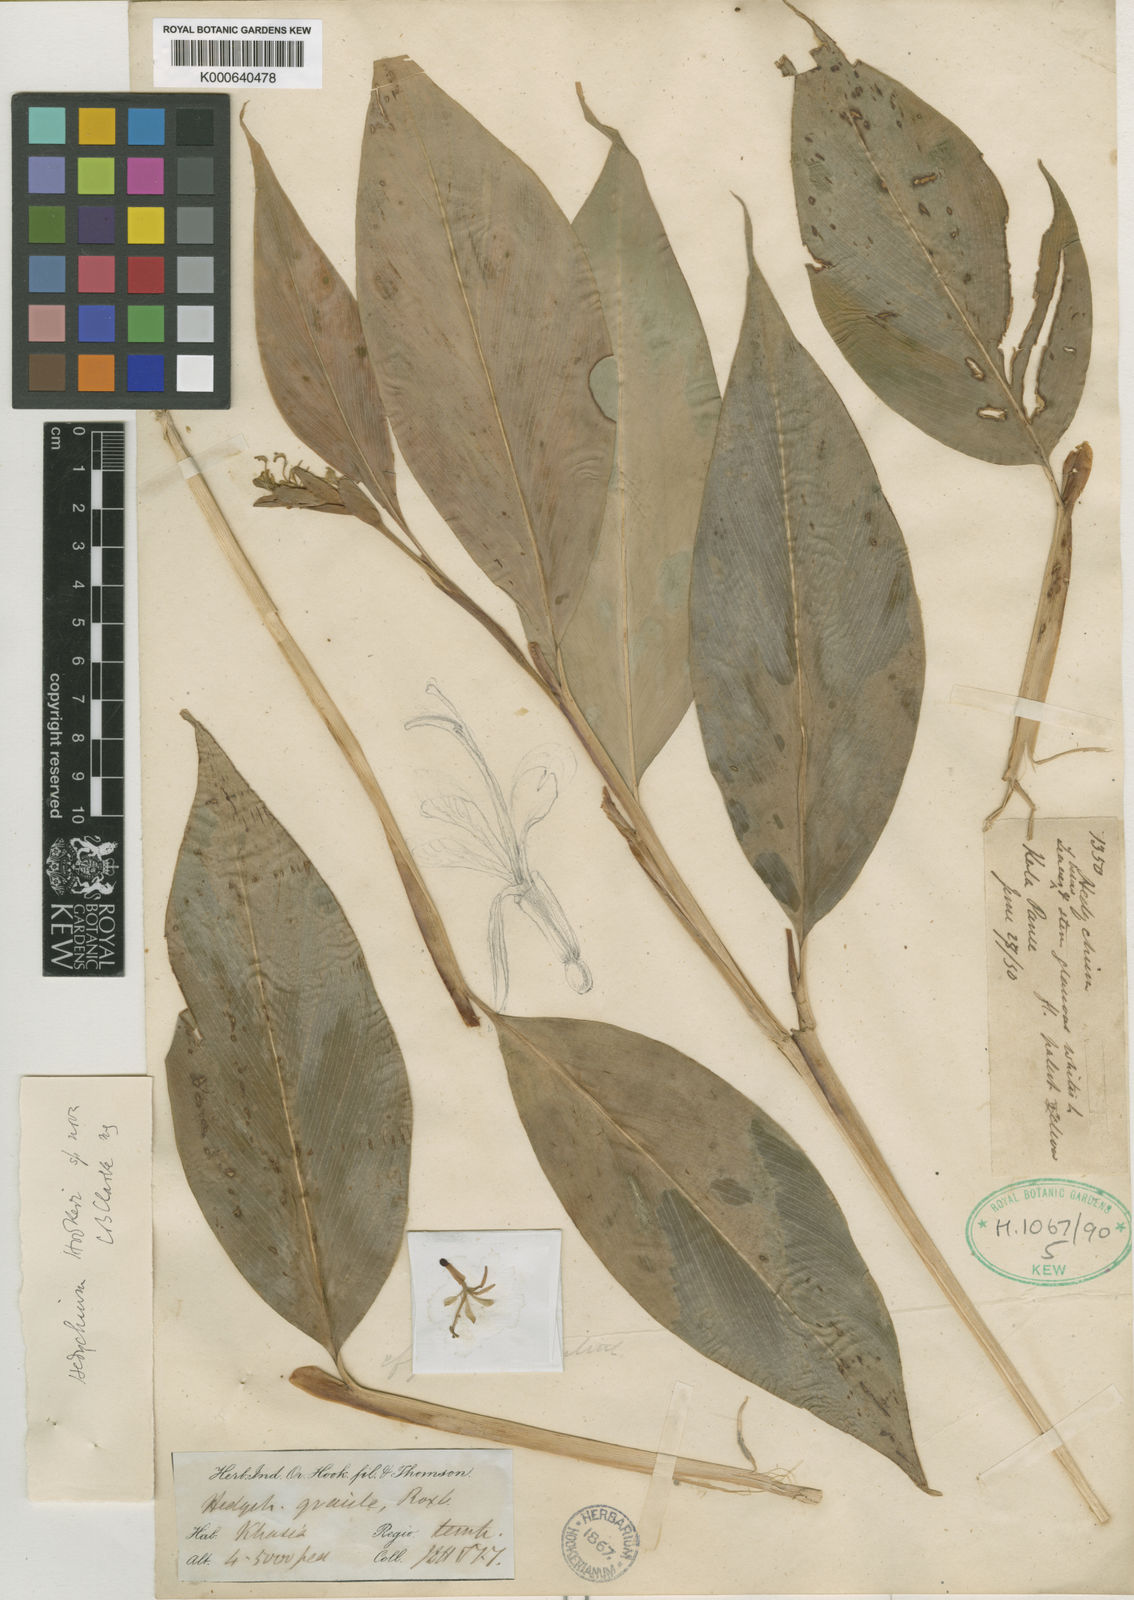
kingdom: Plantae
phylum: Tracheophyta
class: Liliopsida
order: Zingiberales
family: Zingiberaceae
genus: Hedychium
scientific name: Hedychium hookeri
